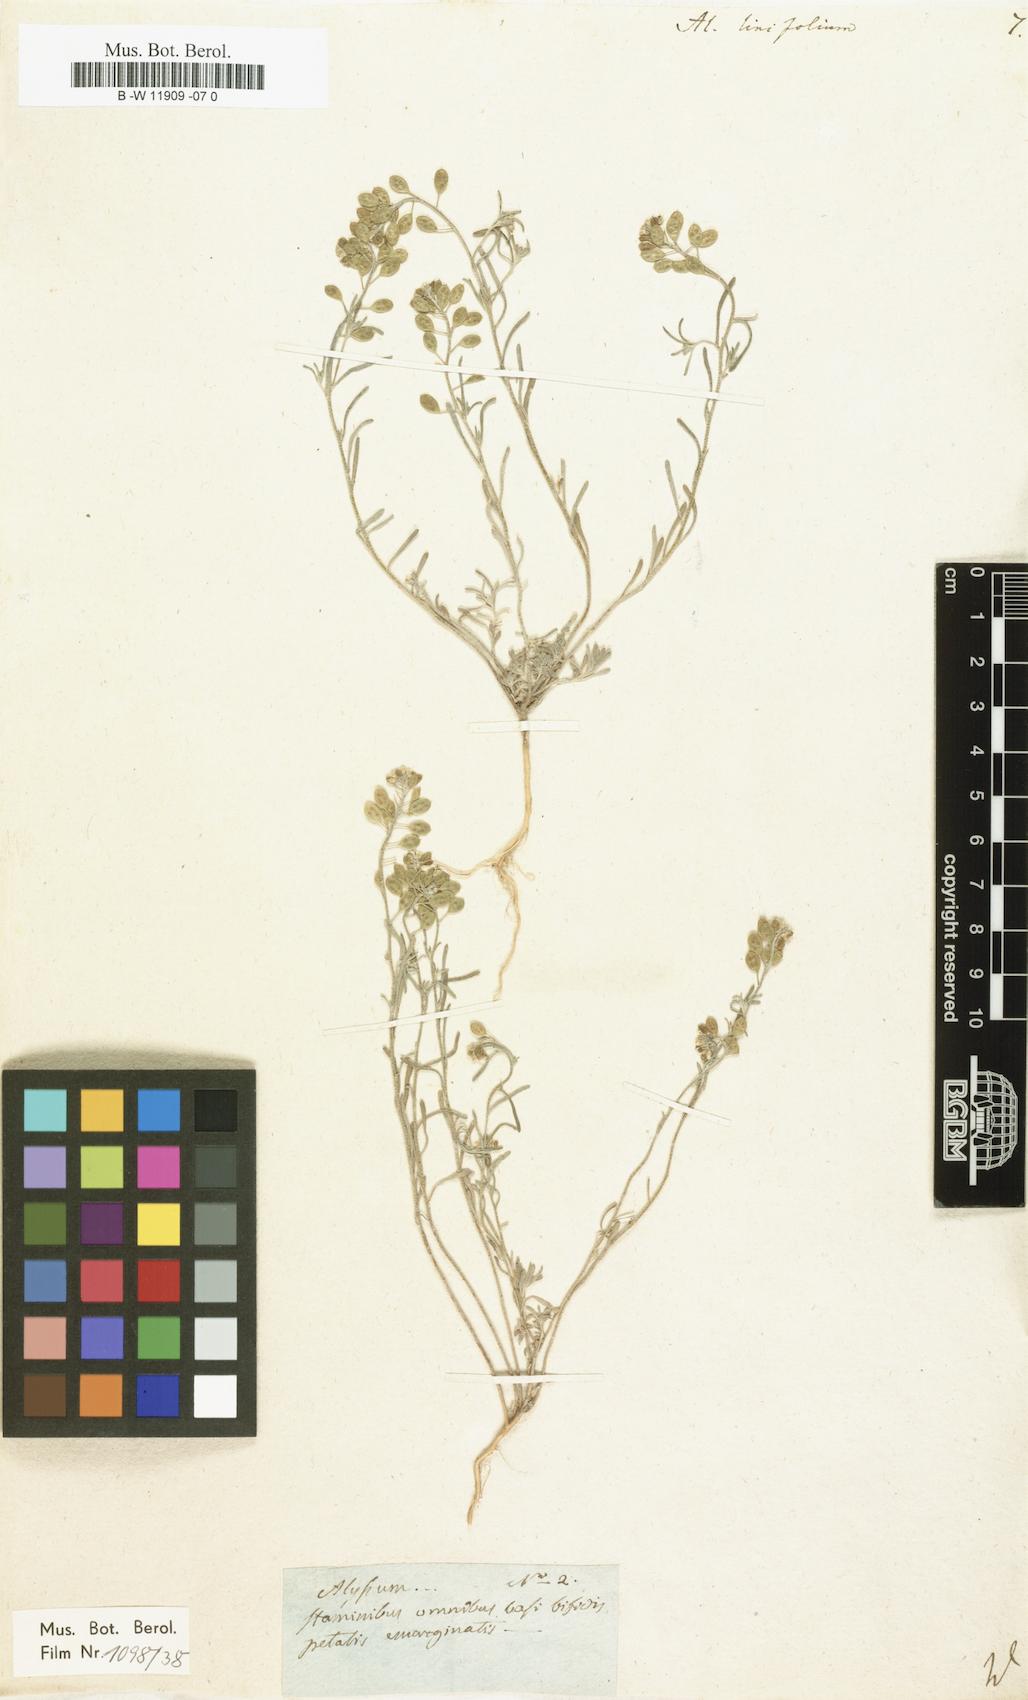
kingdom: Plantae
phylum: Tracheophyta
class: Magnoliopsida
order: Brassicales
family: Brassicaceae
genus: Meniocus
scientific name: Meniocus linifolius
